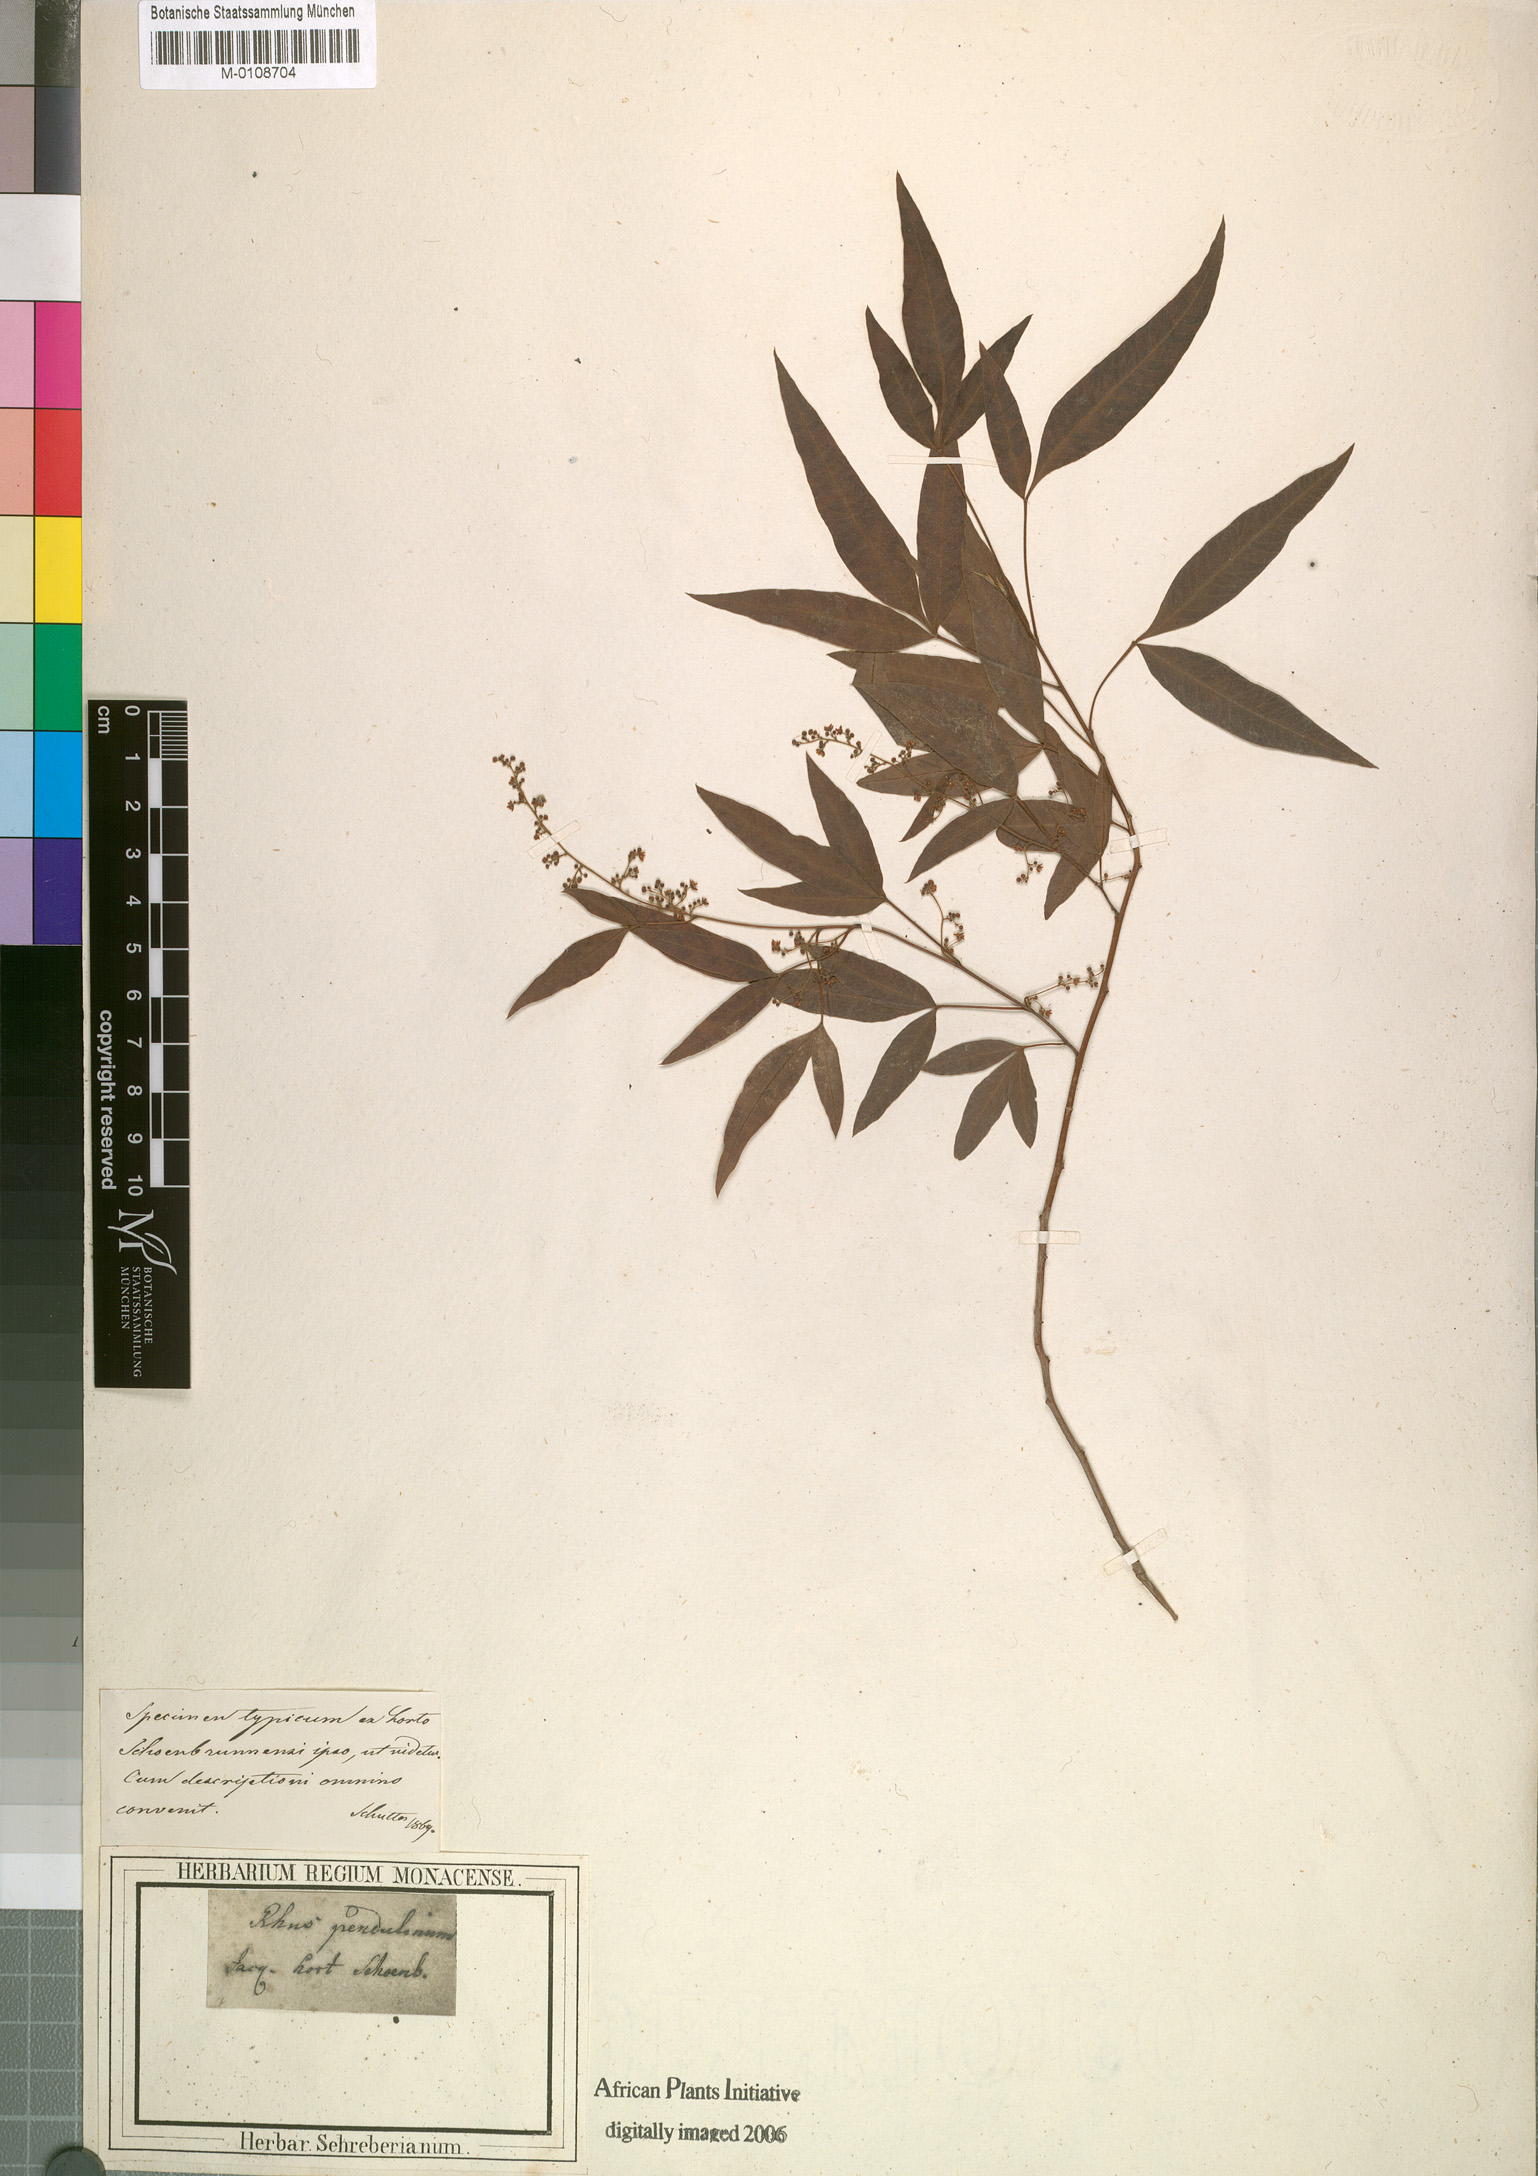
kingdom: Plantae
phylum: Tracheophyta
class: Magnoliopsida
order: Sapindales
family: Anacardiaceae
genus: Searsia
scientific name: Searsia laevigata
